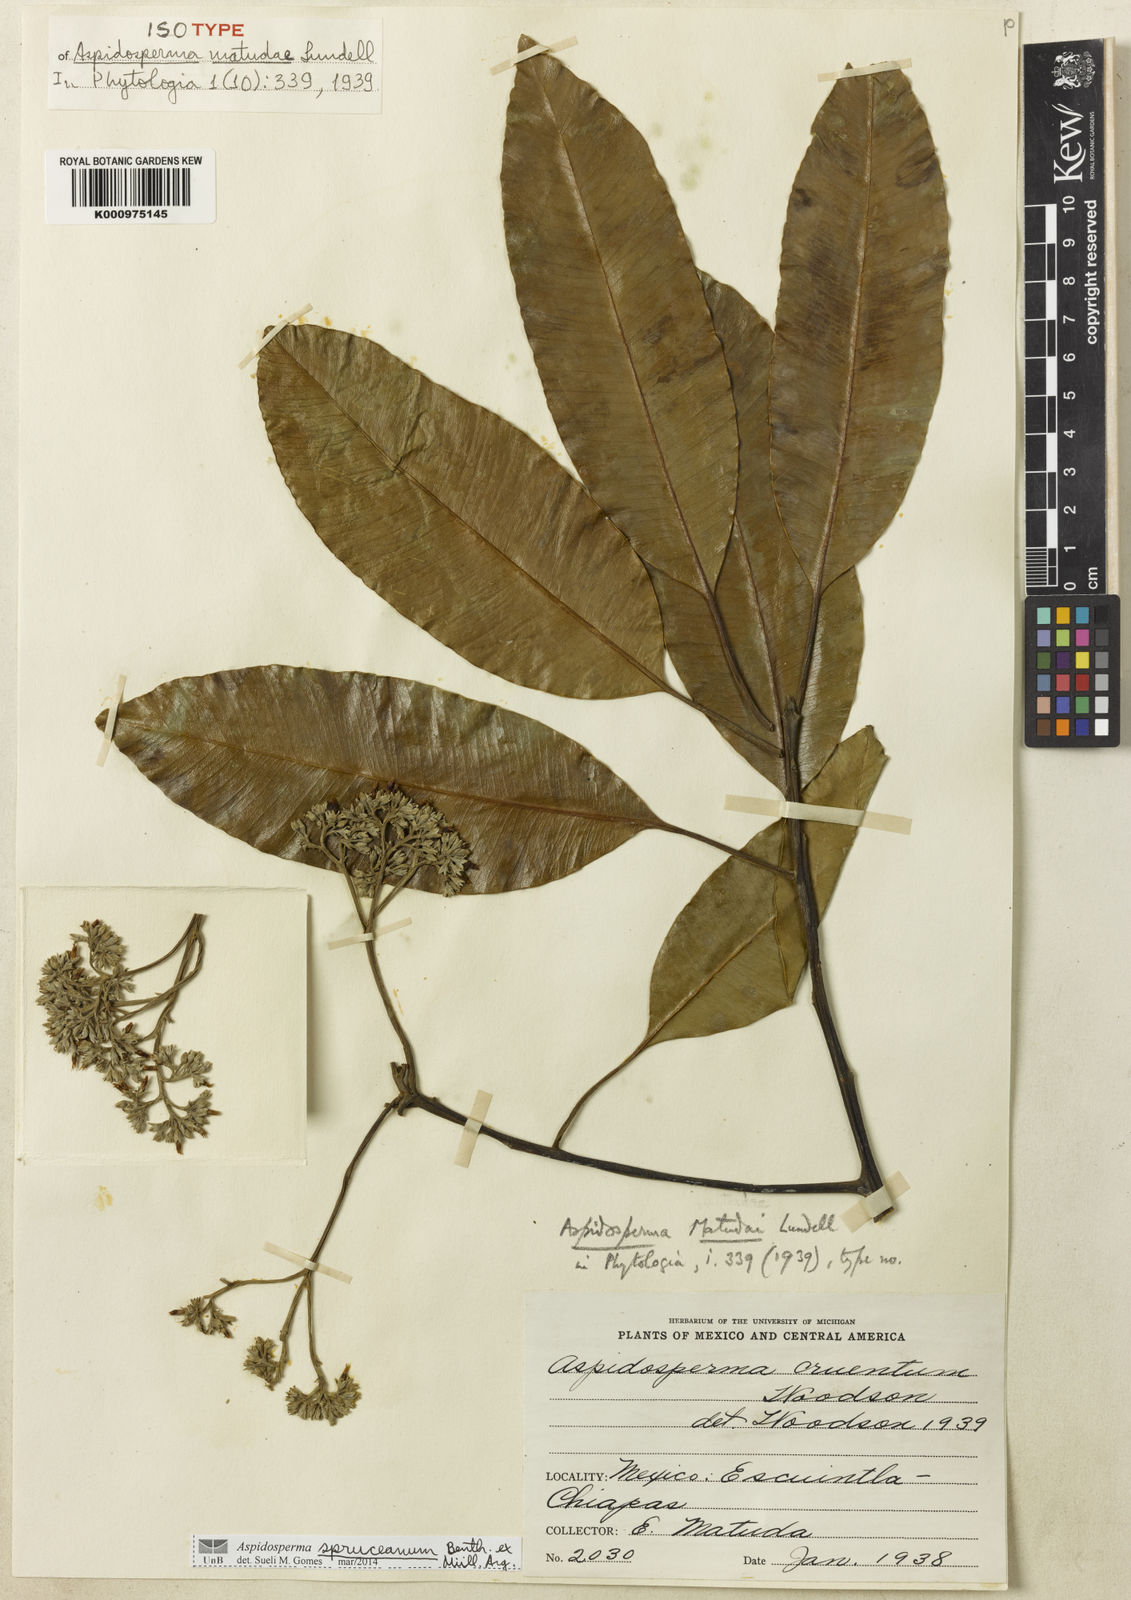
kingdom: Plantae
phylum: Tracheophyta
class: Magnoliopsida
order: Gentianales
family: Apocynaceae
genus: Aspidosperma
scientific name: Aspidosperma
